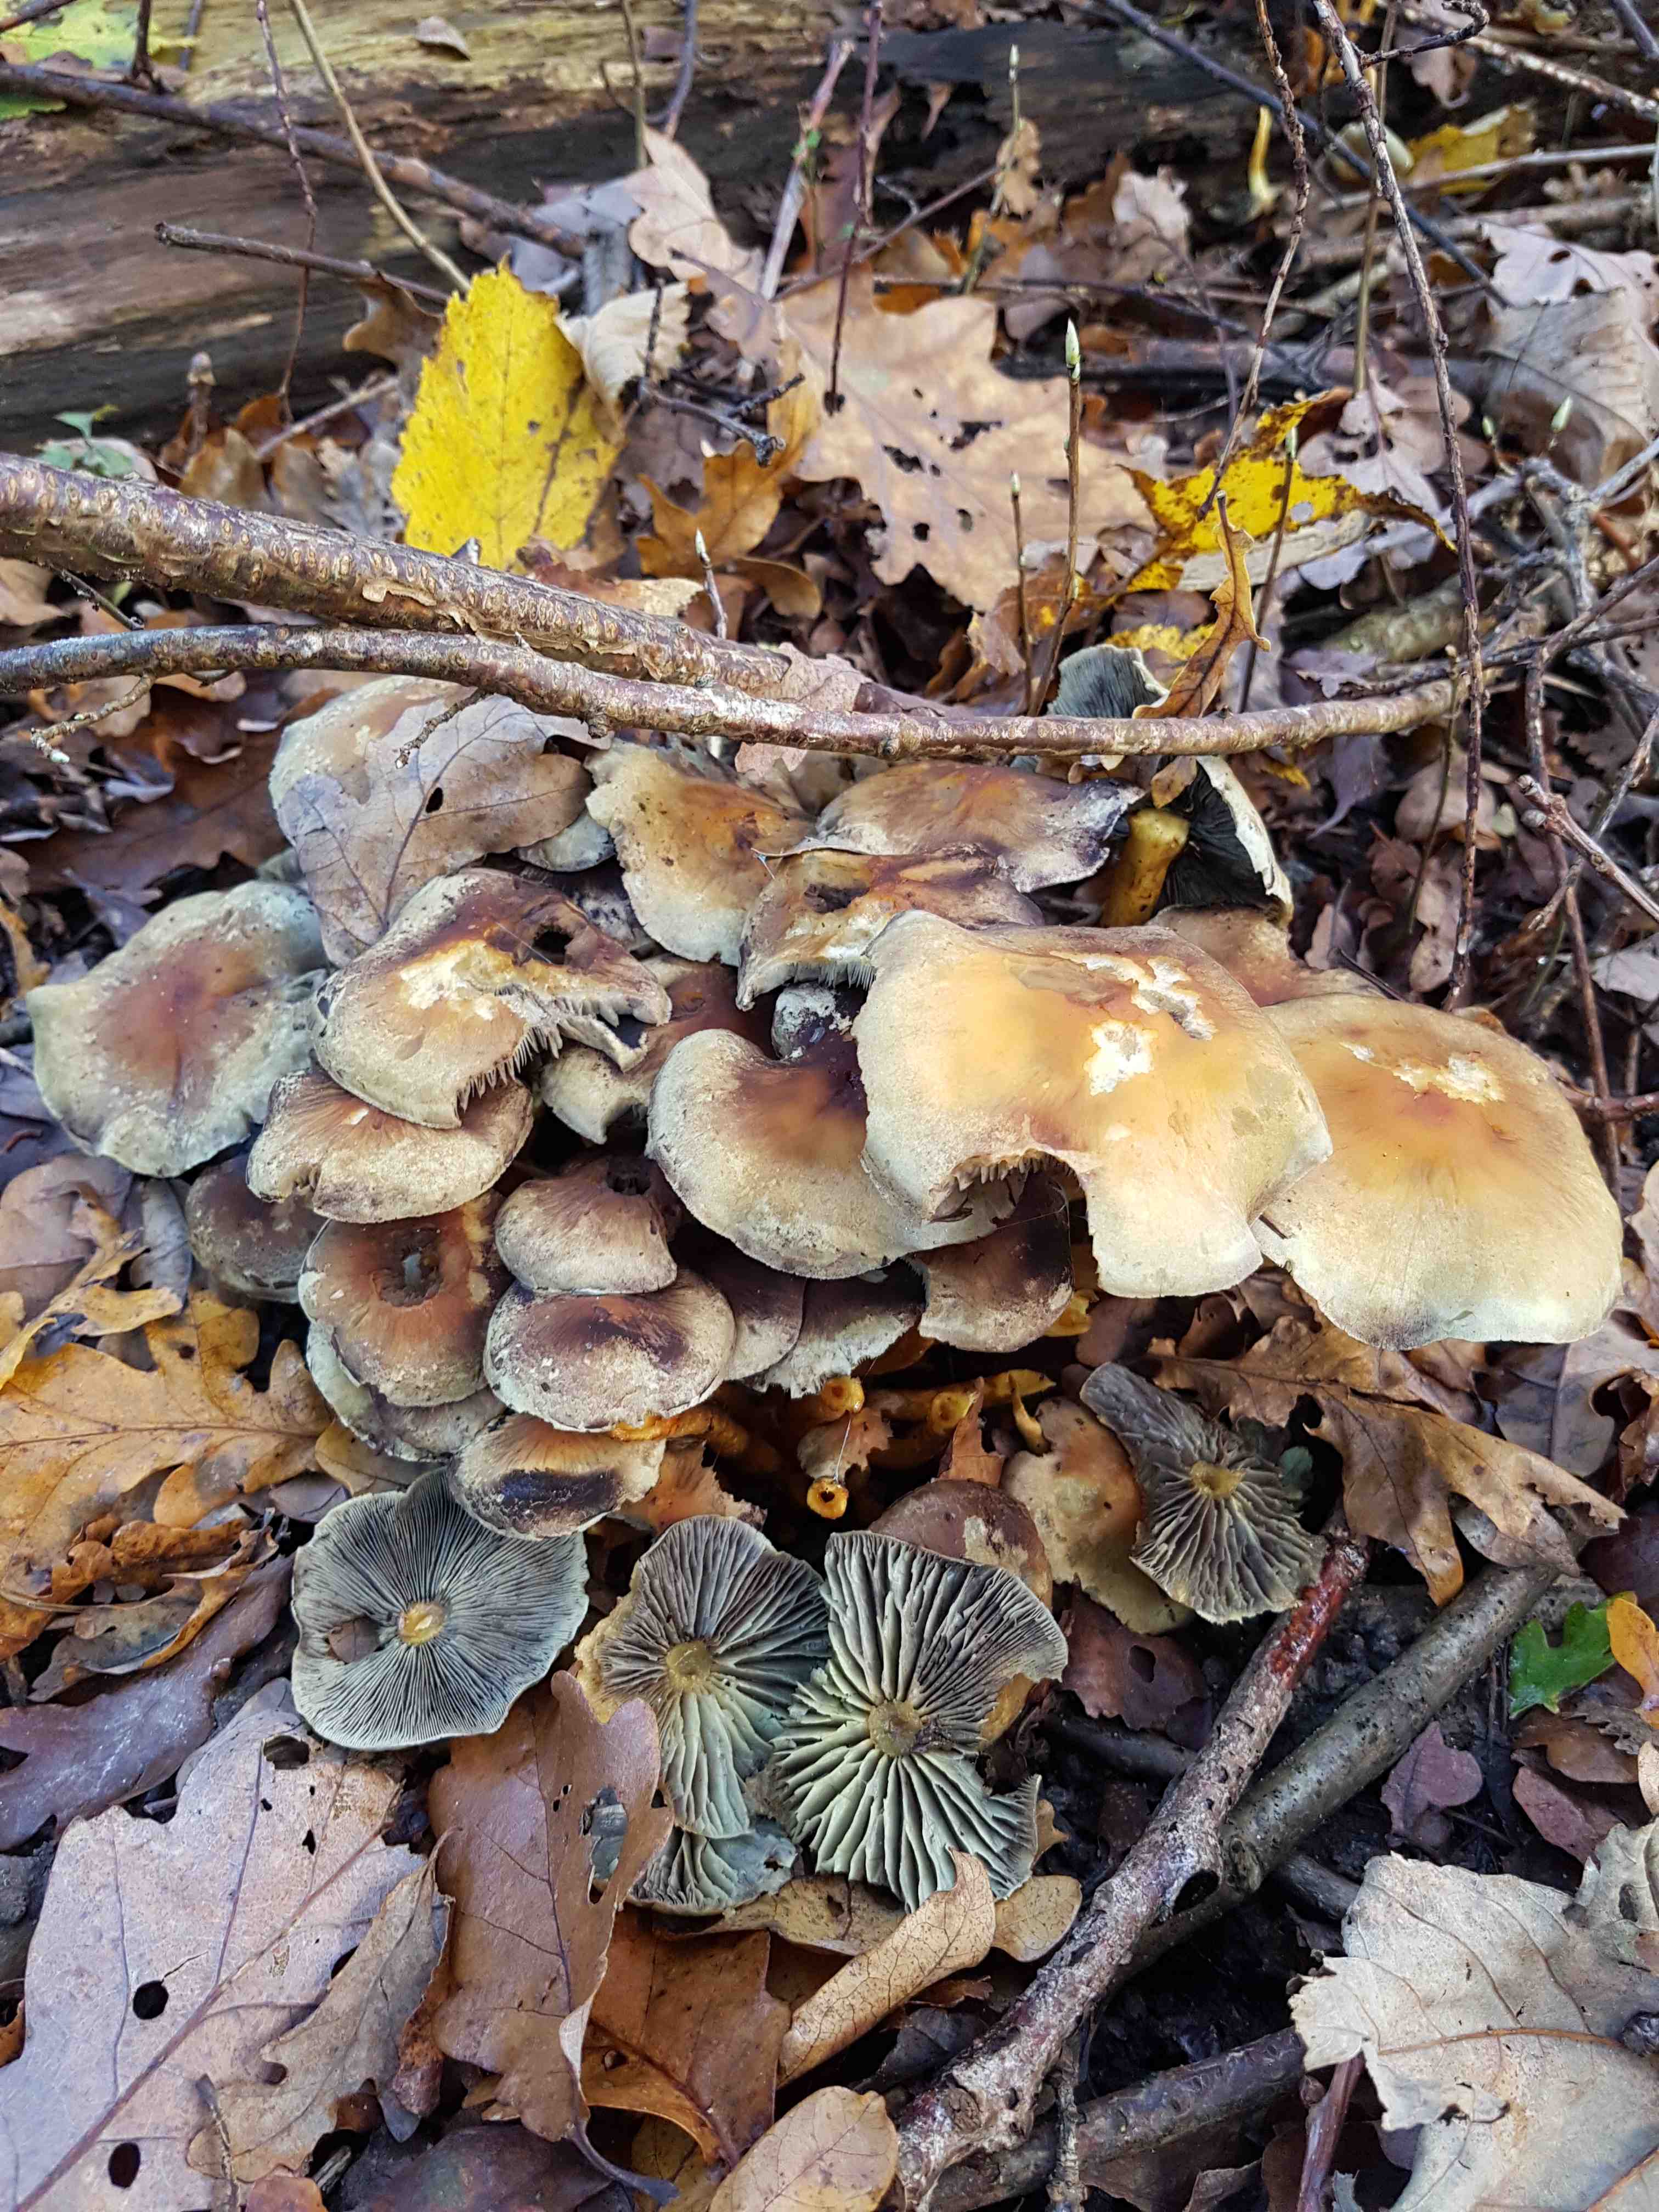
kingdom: Fungi
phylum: Basidiomycota
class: Agaricomycetes
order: Agaricales
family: Strophariaceae
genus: Hypholoma
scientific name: Hypholoma fasciculare
